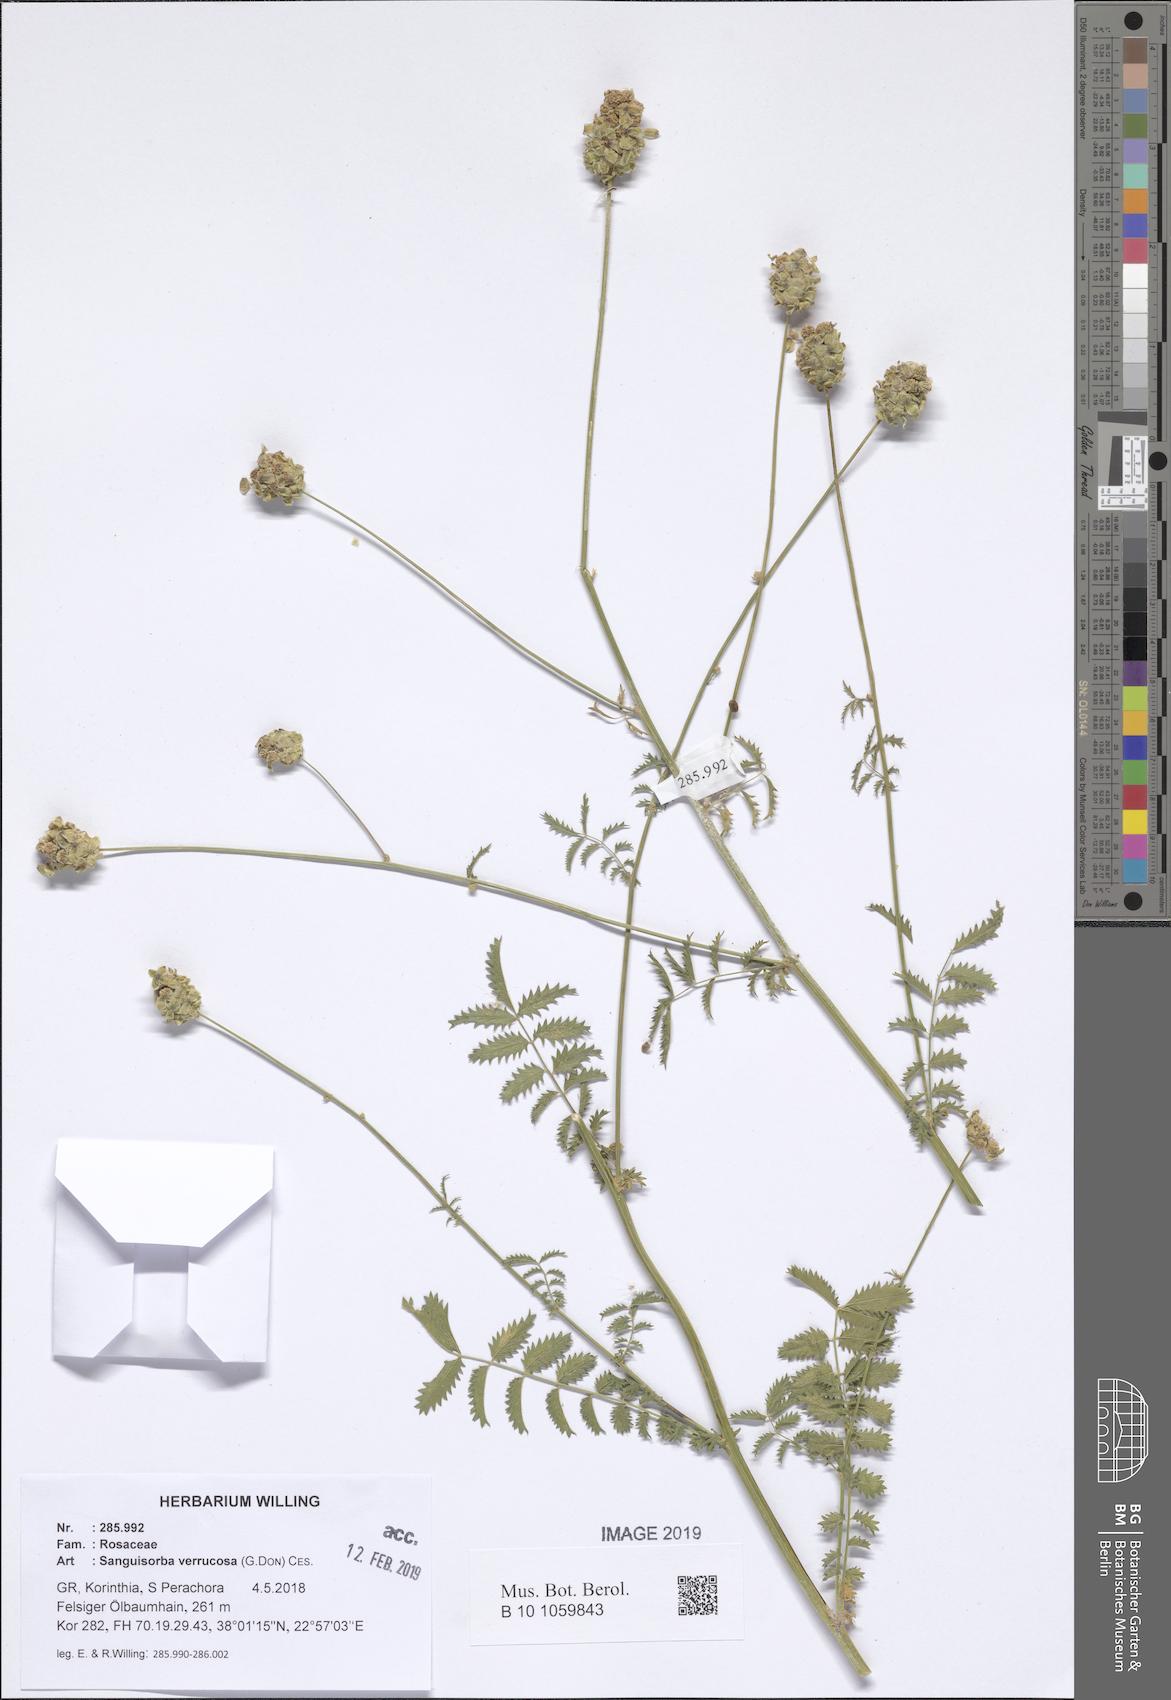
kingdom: Plantae
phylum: Tracheophyta
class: Magnoliopsida
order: Rosales
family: Rosaceae
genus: Poterium
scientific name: Poterium verrucosum
